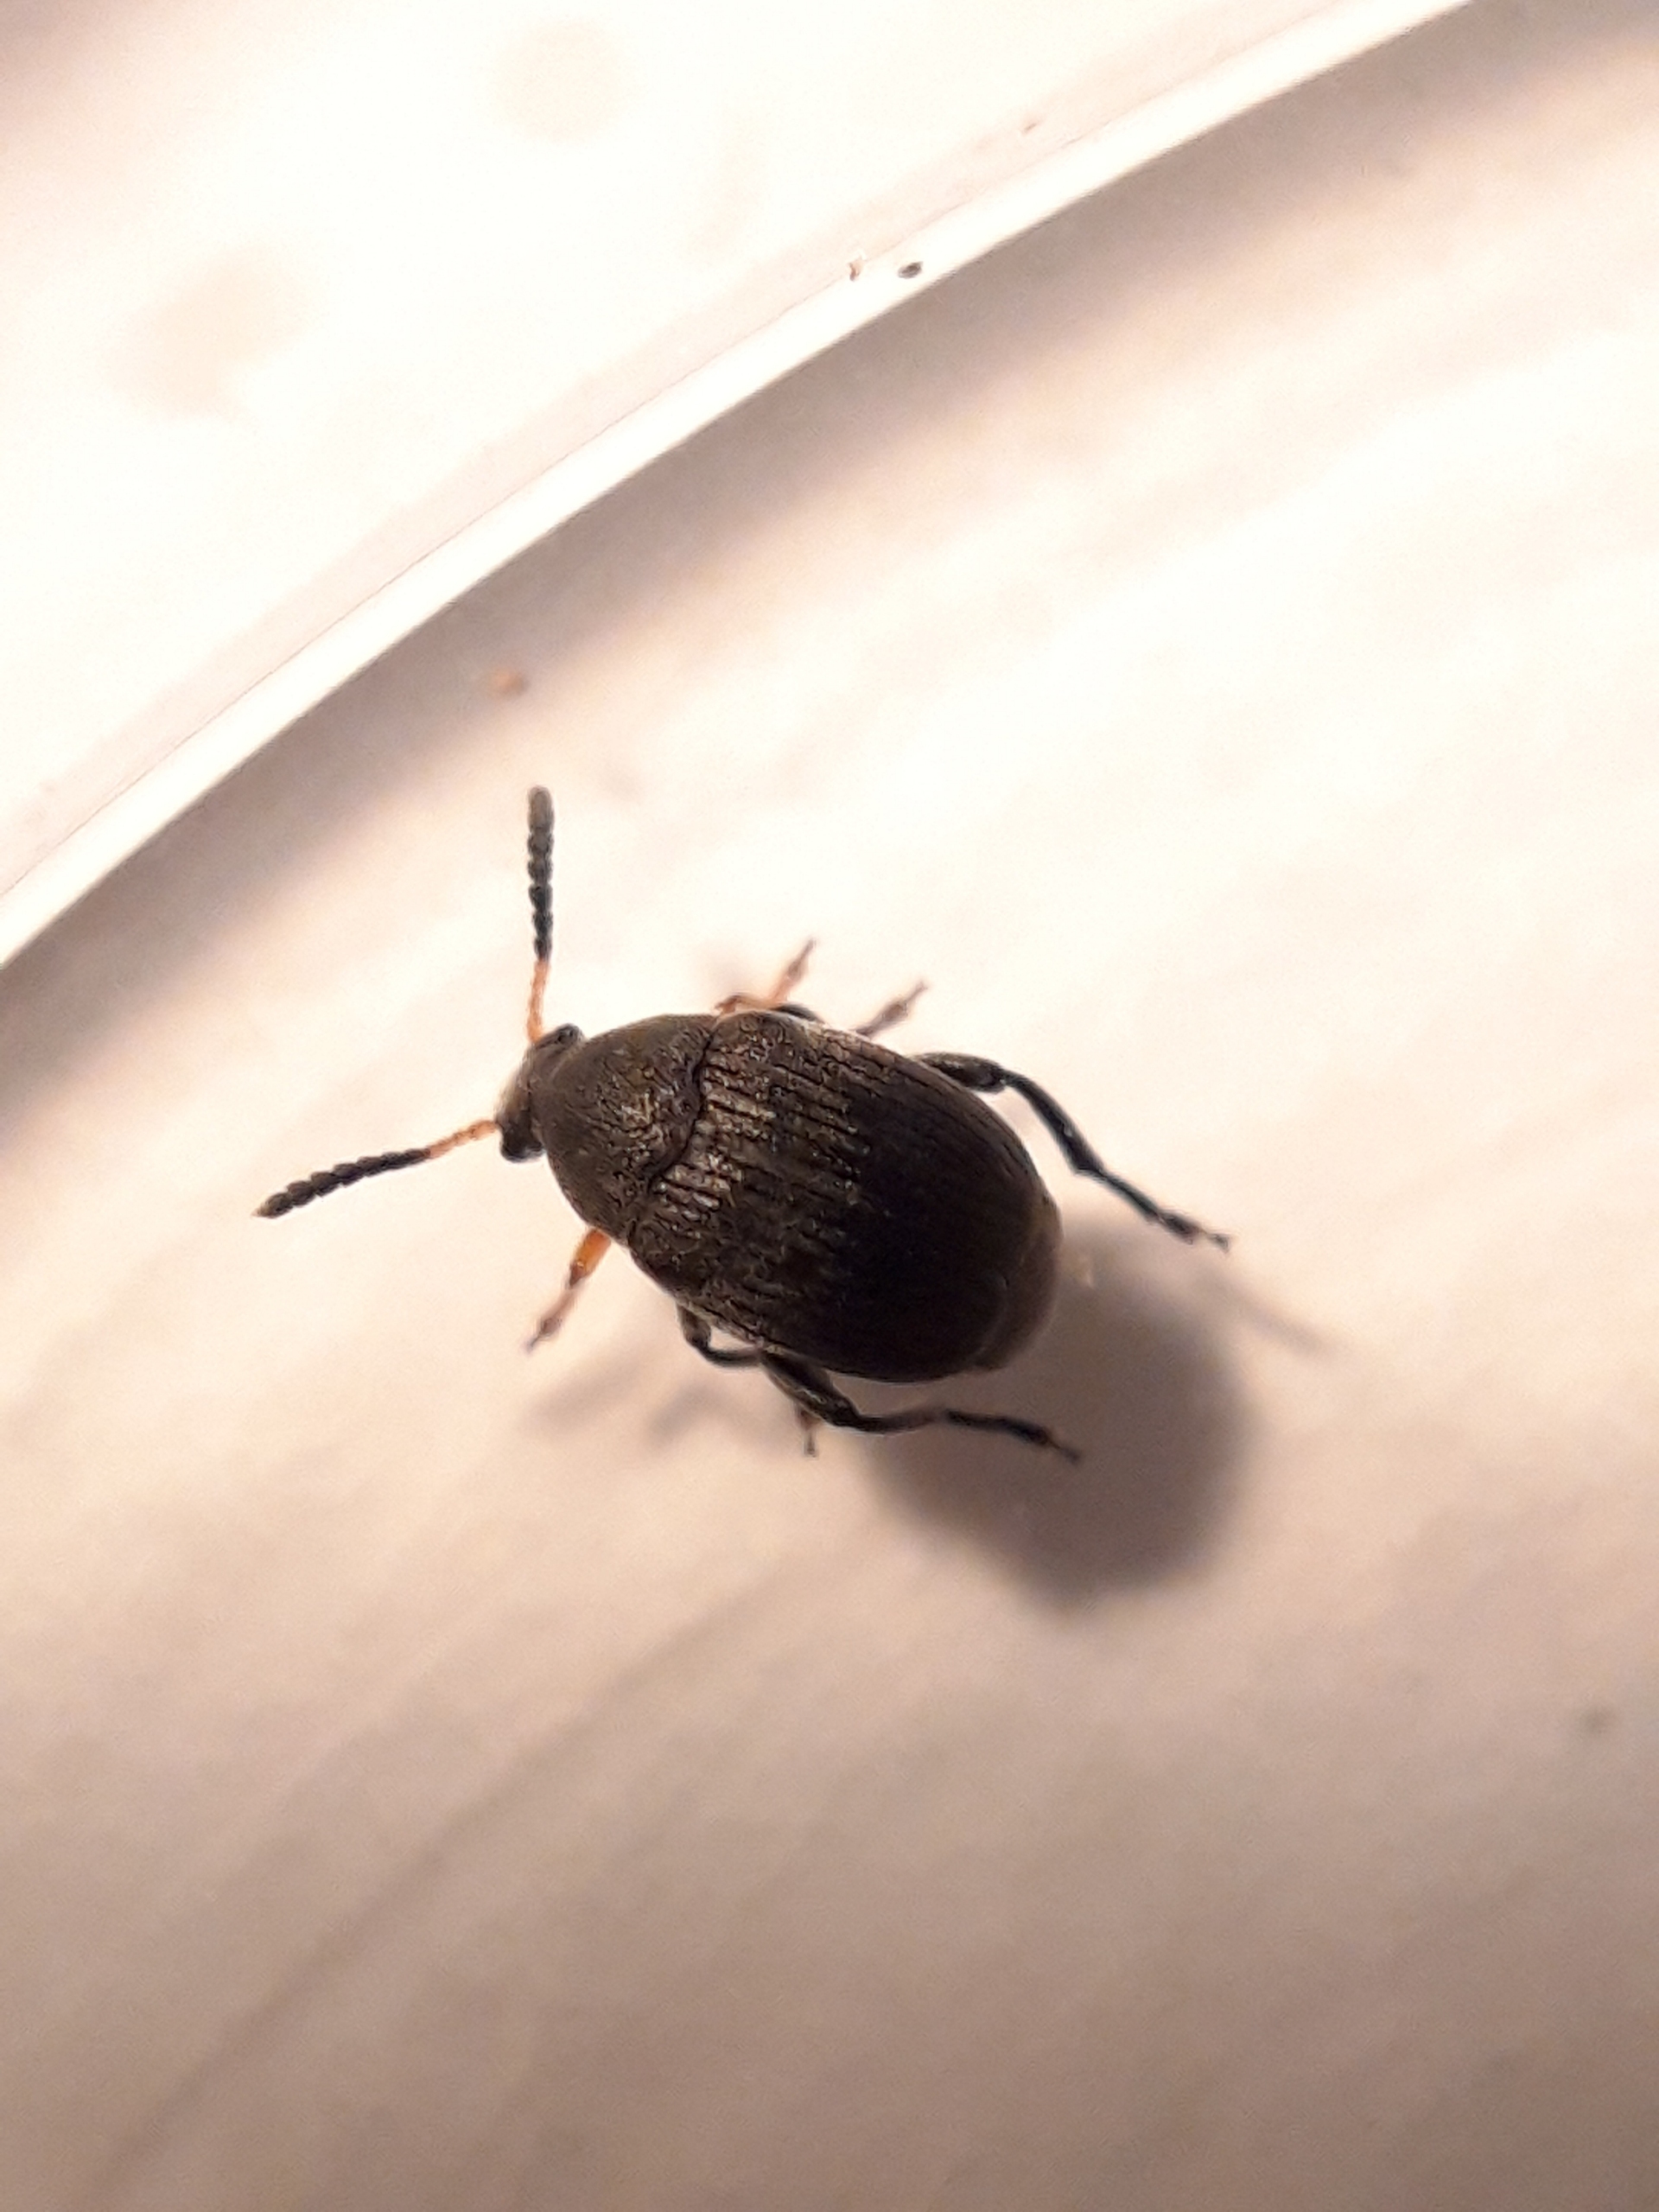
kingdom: Animalia
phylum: Arthropoda
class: Insecta
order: Coleoptera
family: Chrysomelidae
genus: Bruchus
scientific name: Bruchus loti
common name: Lille bønnebille
